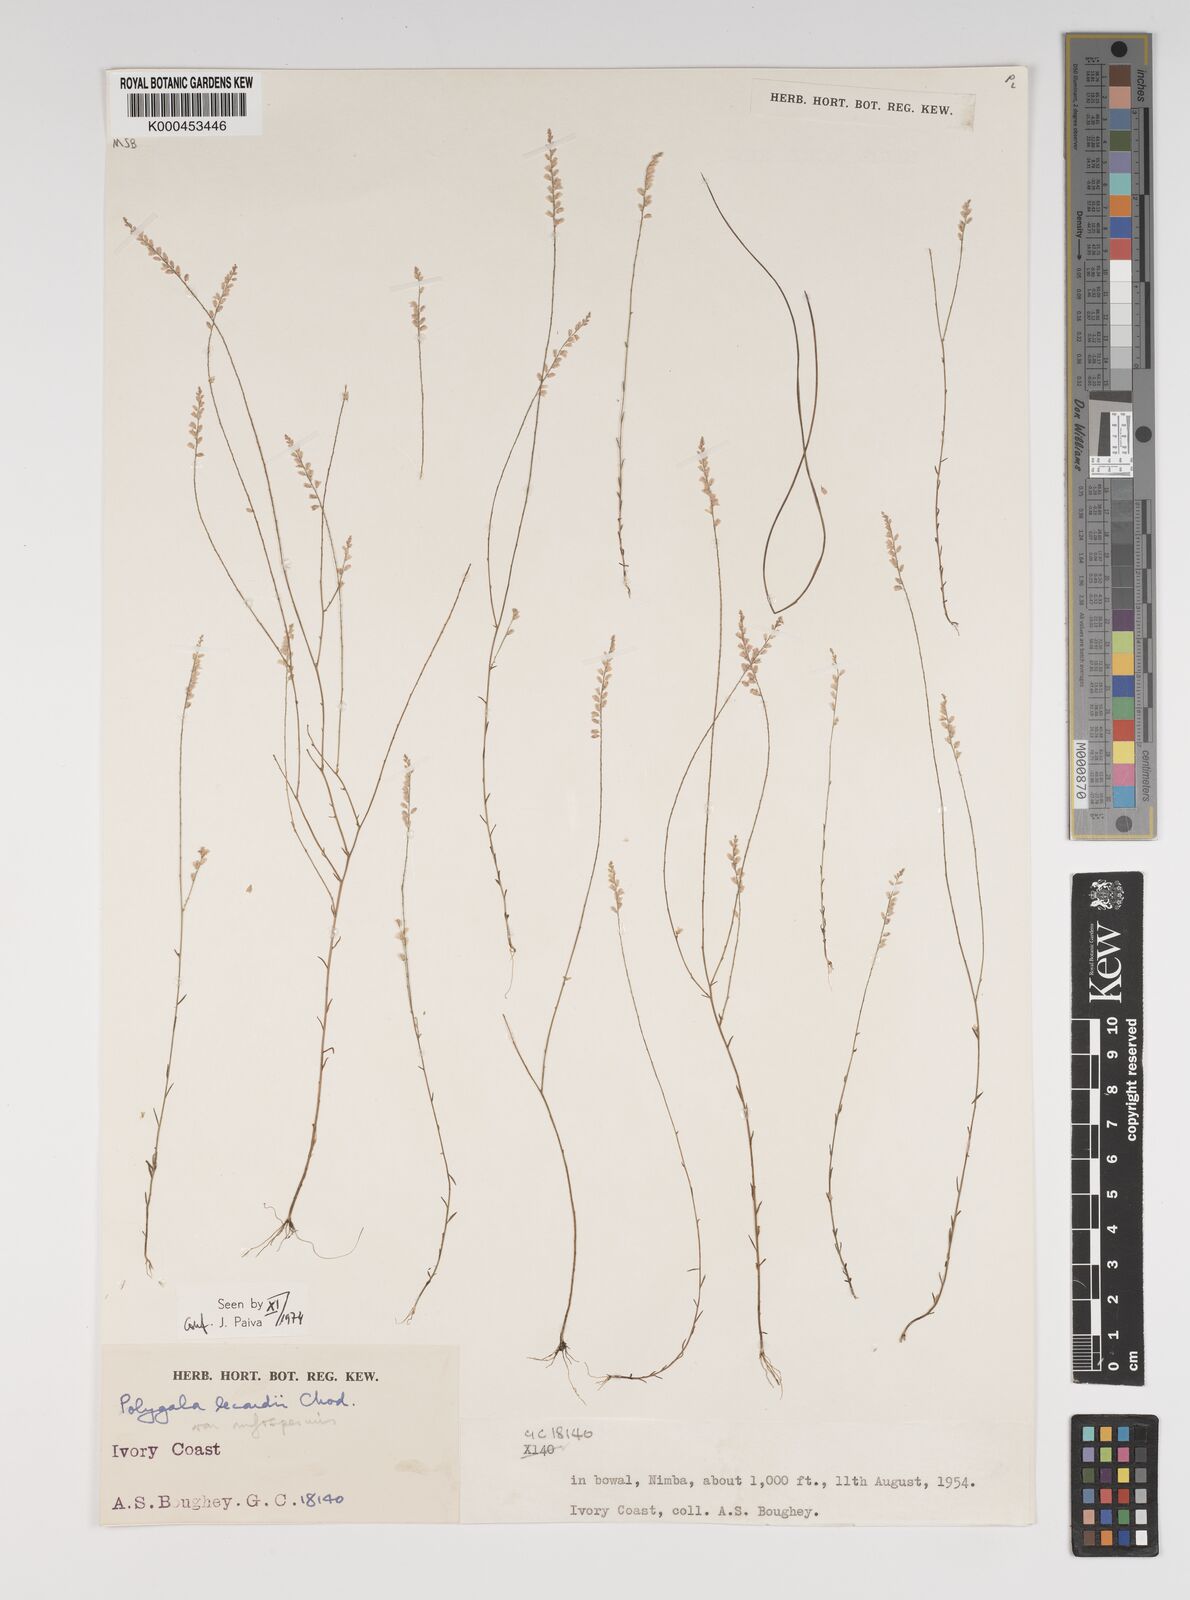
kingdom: Plantae
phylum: Tracheophyta
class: Magnoliopsida
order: Fabales
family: Polygalaceae
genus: Polygala
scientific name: Polygala lecardii
